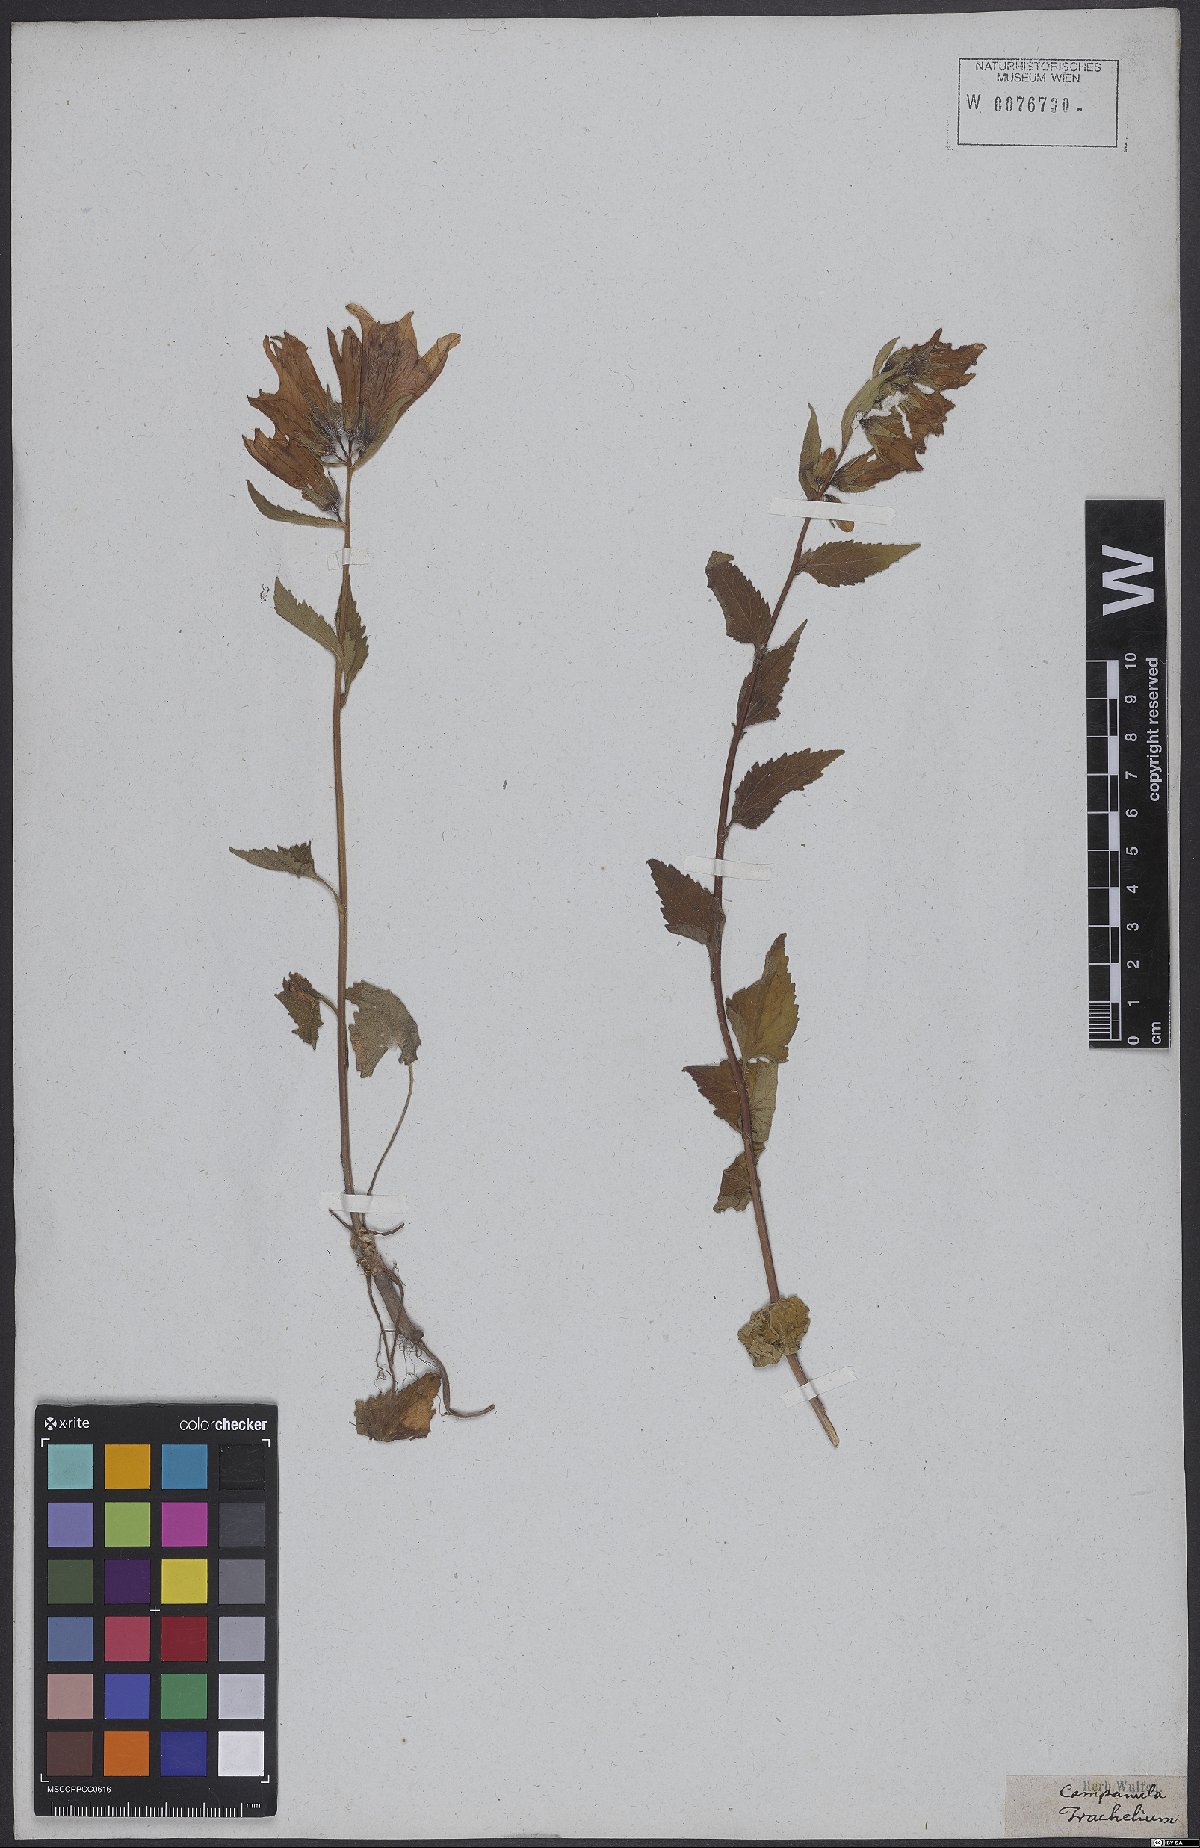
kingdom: Plantae
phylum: Tracheophyta
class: Magnoliopsida
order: Asterales
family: Campanulaceae
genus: Campanula
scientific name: Campanula trachelium
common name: Nettle-leaved bellflower
